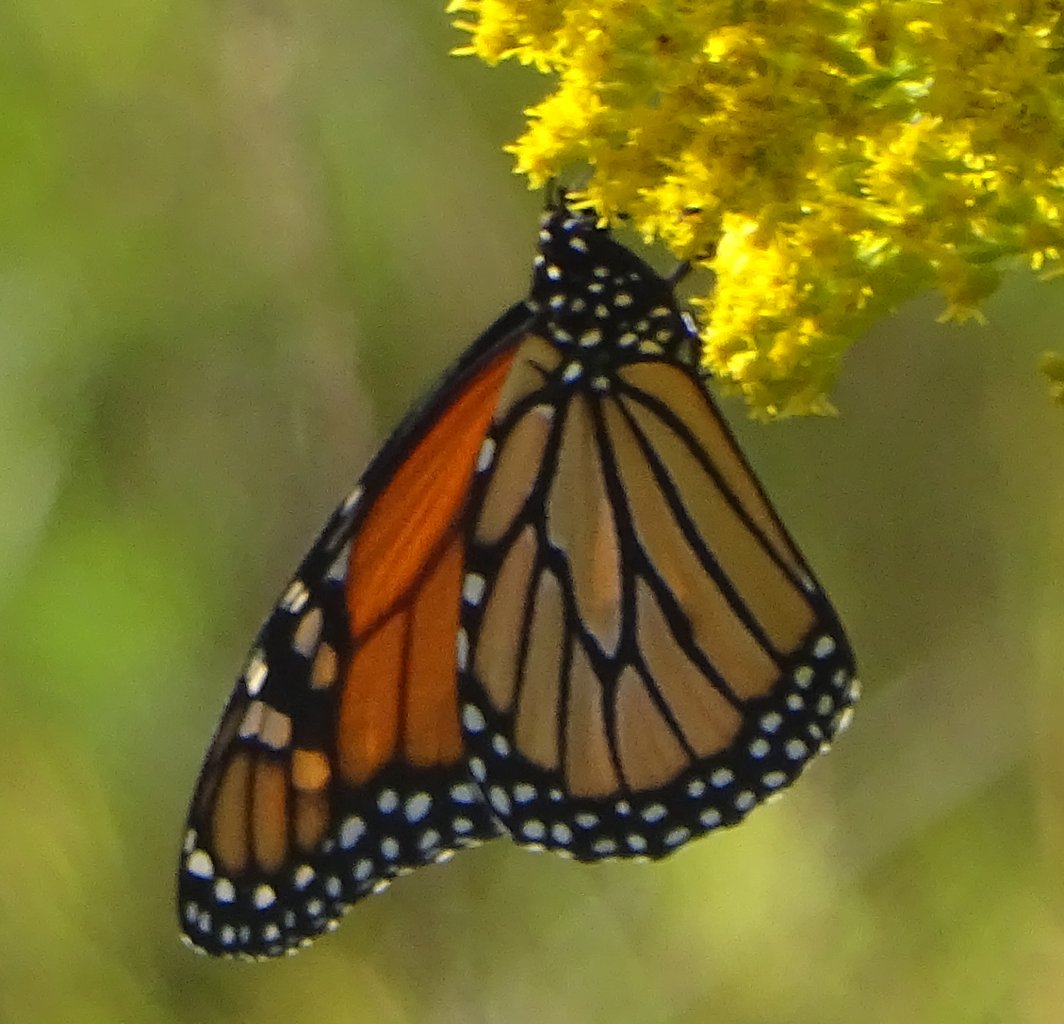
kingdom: Animalia
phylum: Arthropoda
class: Insecta
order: Lepidoptera
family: Nymphalidae
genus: Danaus
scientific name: Danaus plexippus
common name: Monarch
